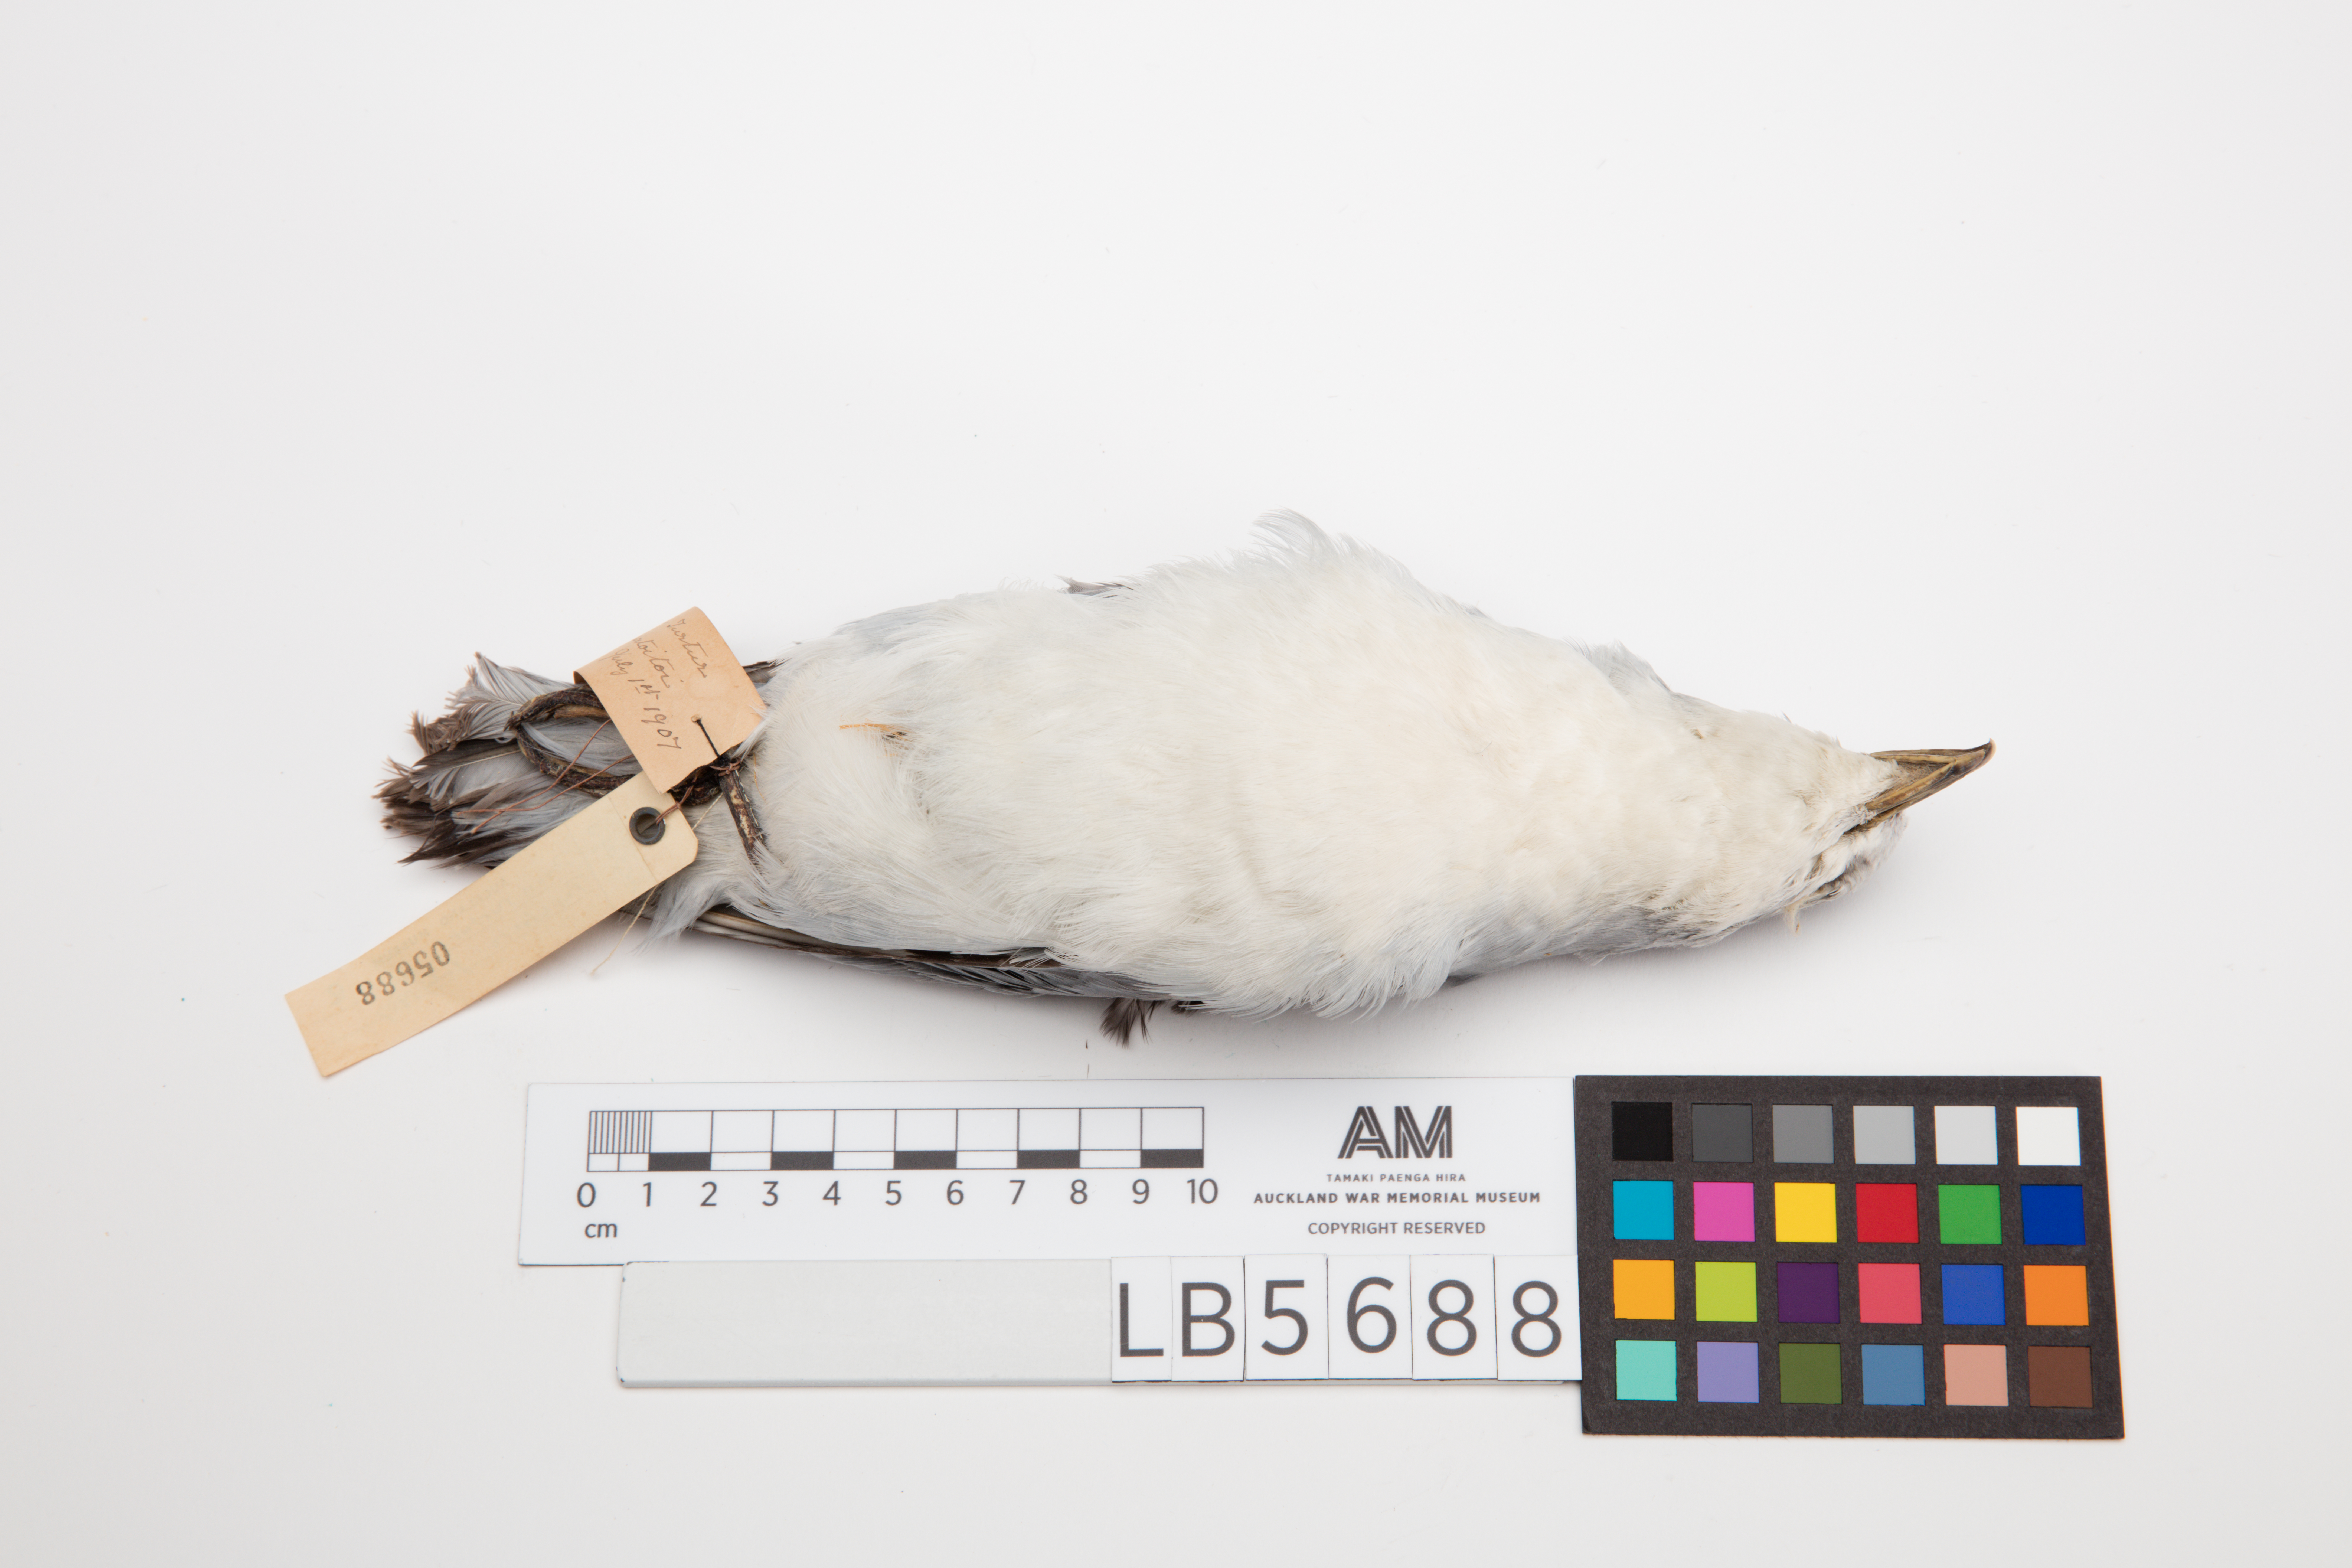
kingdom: Animalia
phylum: Chordata
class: Aves
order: Procellariiformes
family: Procellariidae
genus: Pachyptila
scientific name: Pachyptila turtur
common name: Fairy prion
